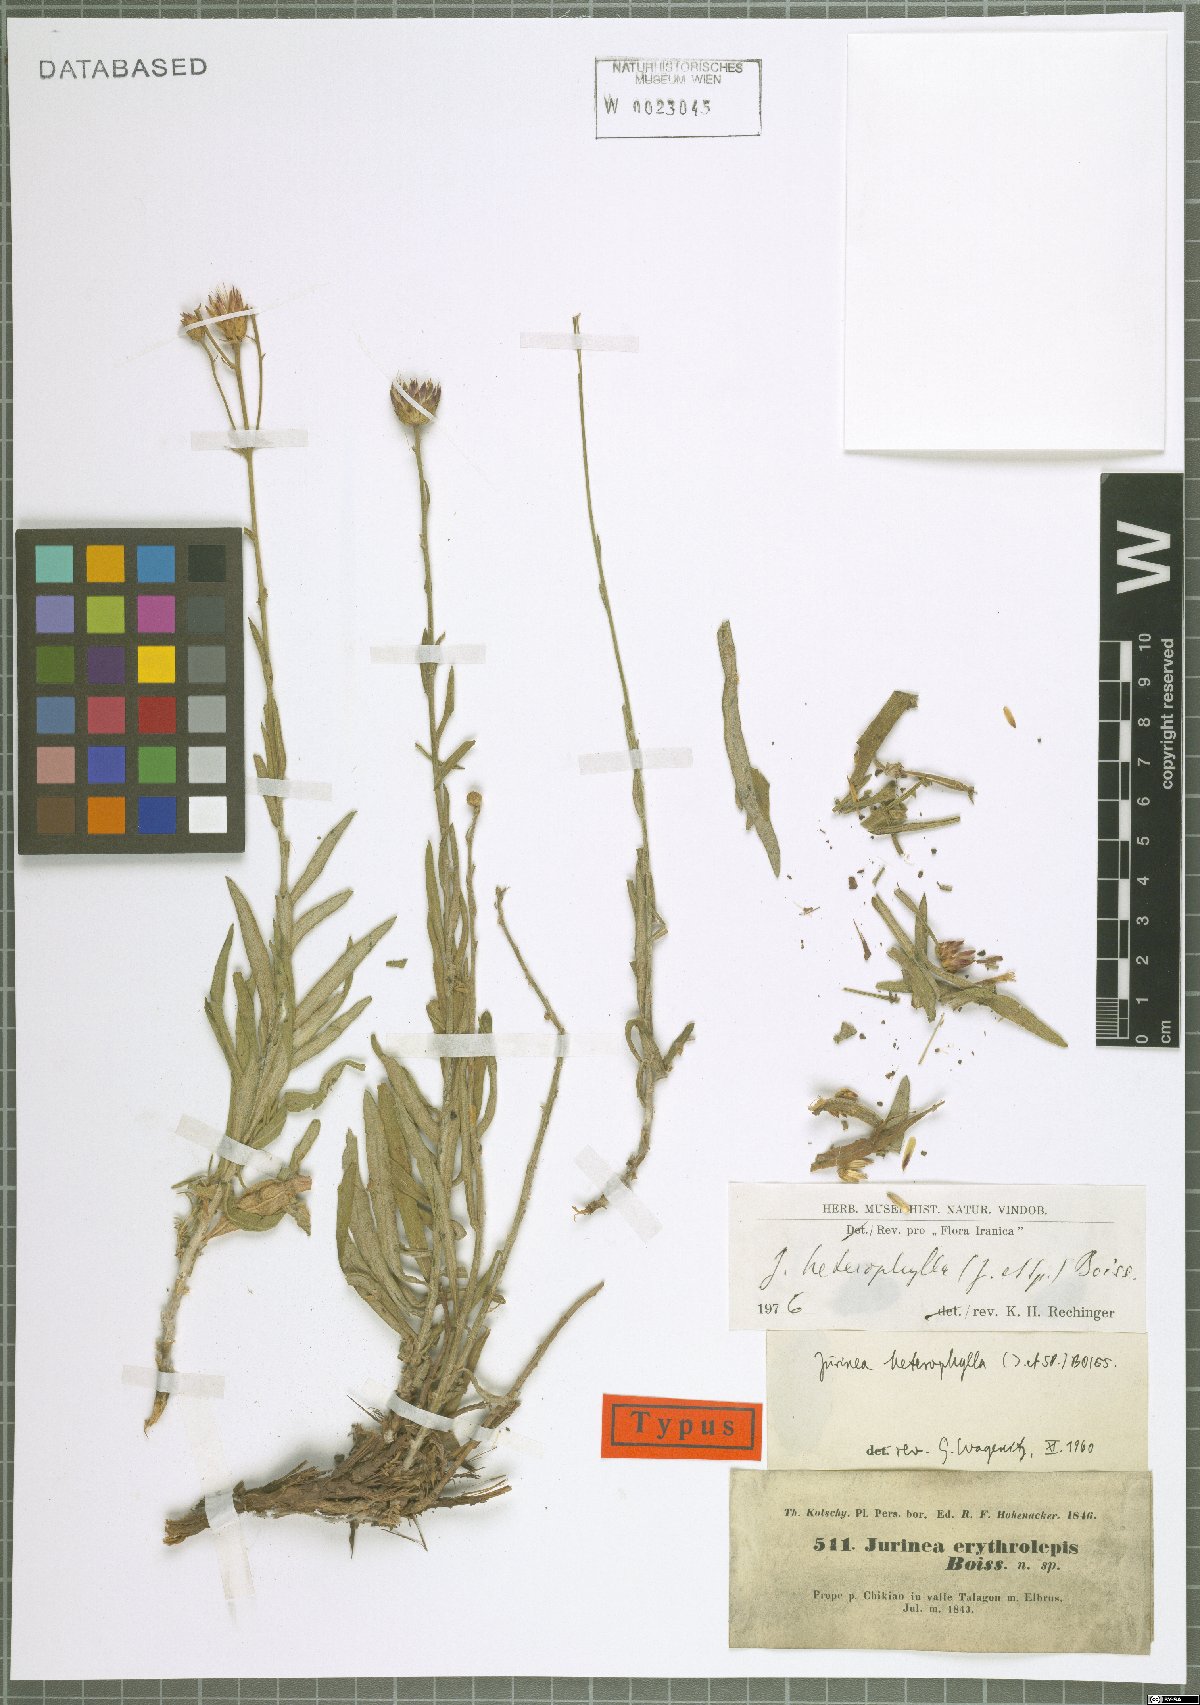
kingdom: Plantae
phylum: Tracheophyta
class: Magnoliopsida
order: Asterales
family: Asteraceae
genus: Jurinea
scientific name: Jurinea heterophylla
